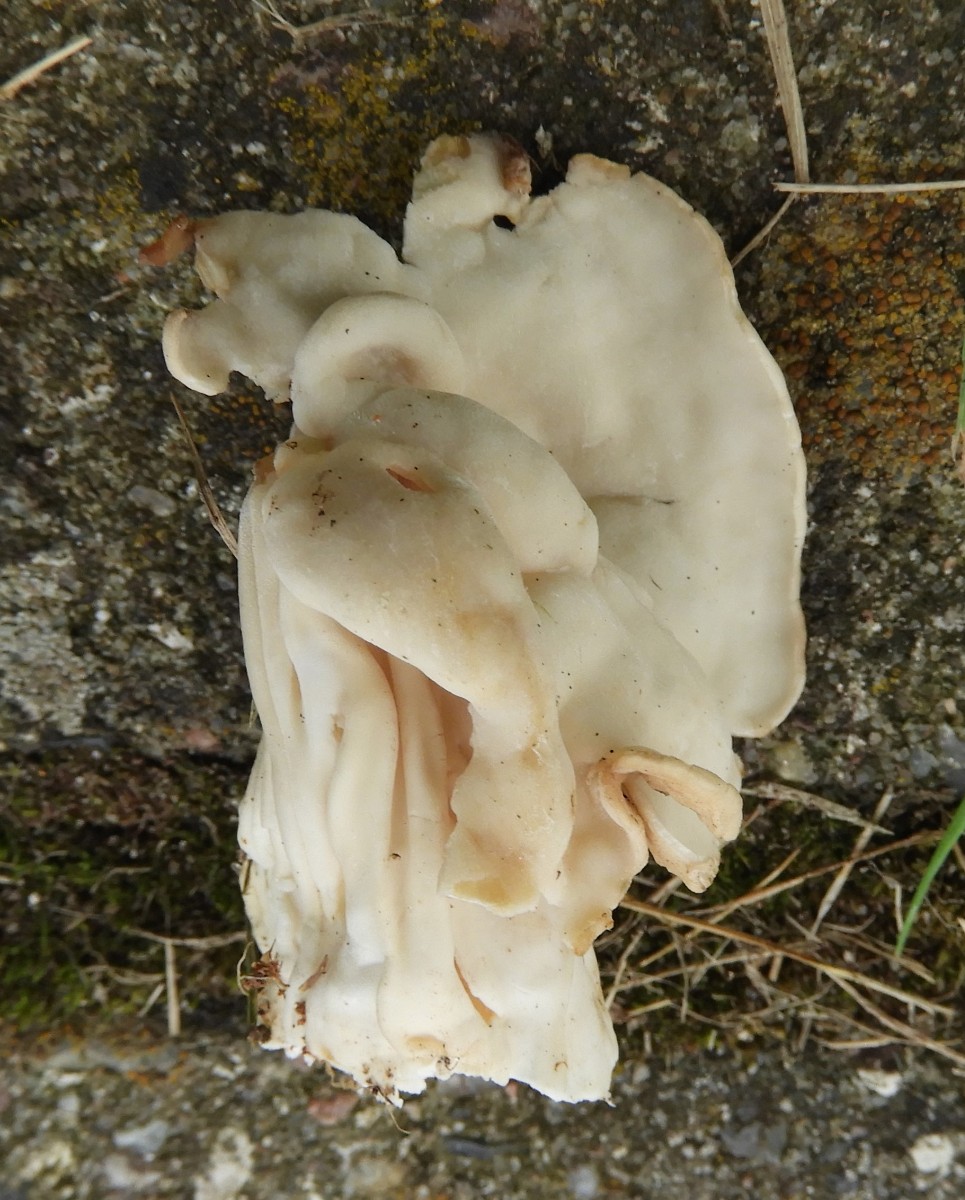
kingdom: Fungi
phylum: Ascomycota
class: Pezizomycetes
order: Pezizales
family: Helvellaceae
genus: Helvella
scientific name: Helvella crispa
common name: kruset foldhat
